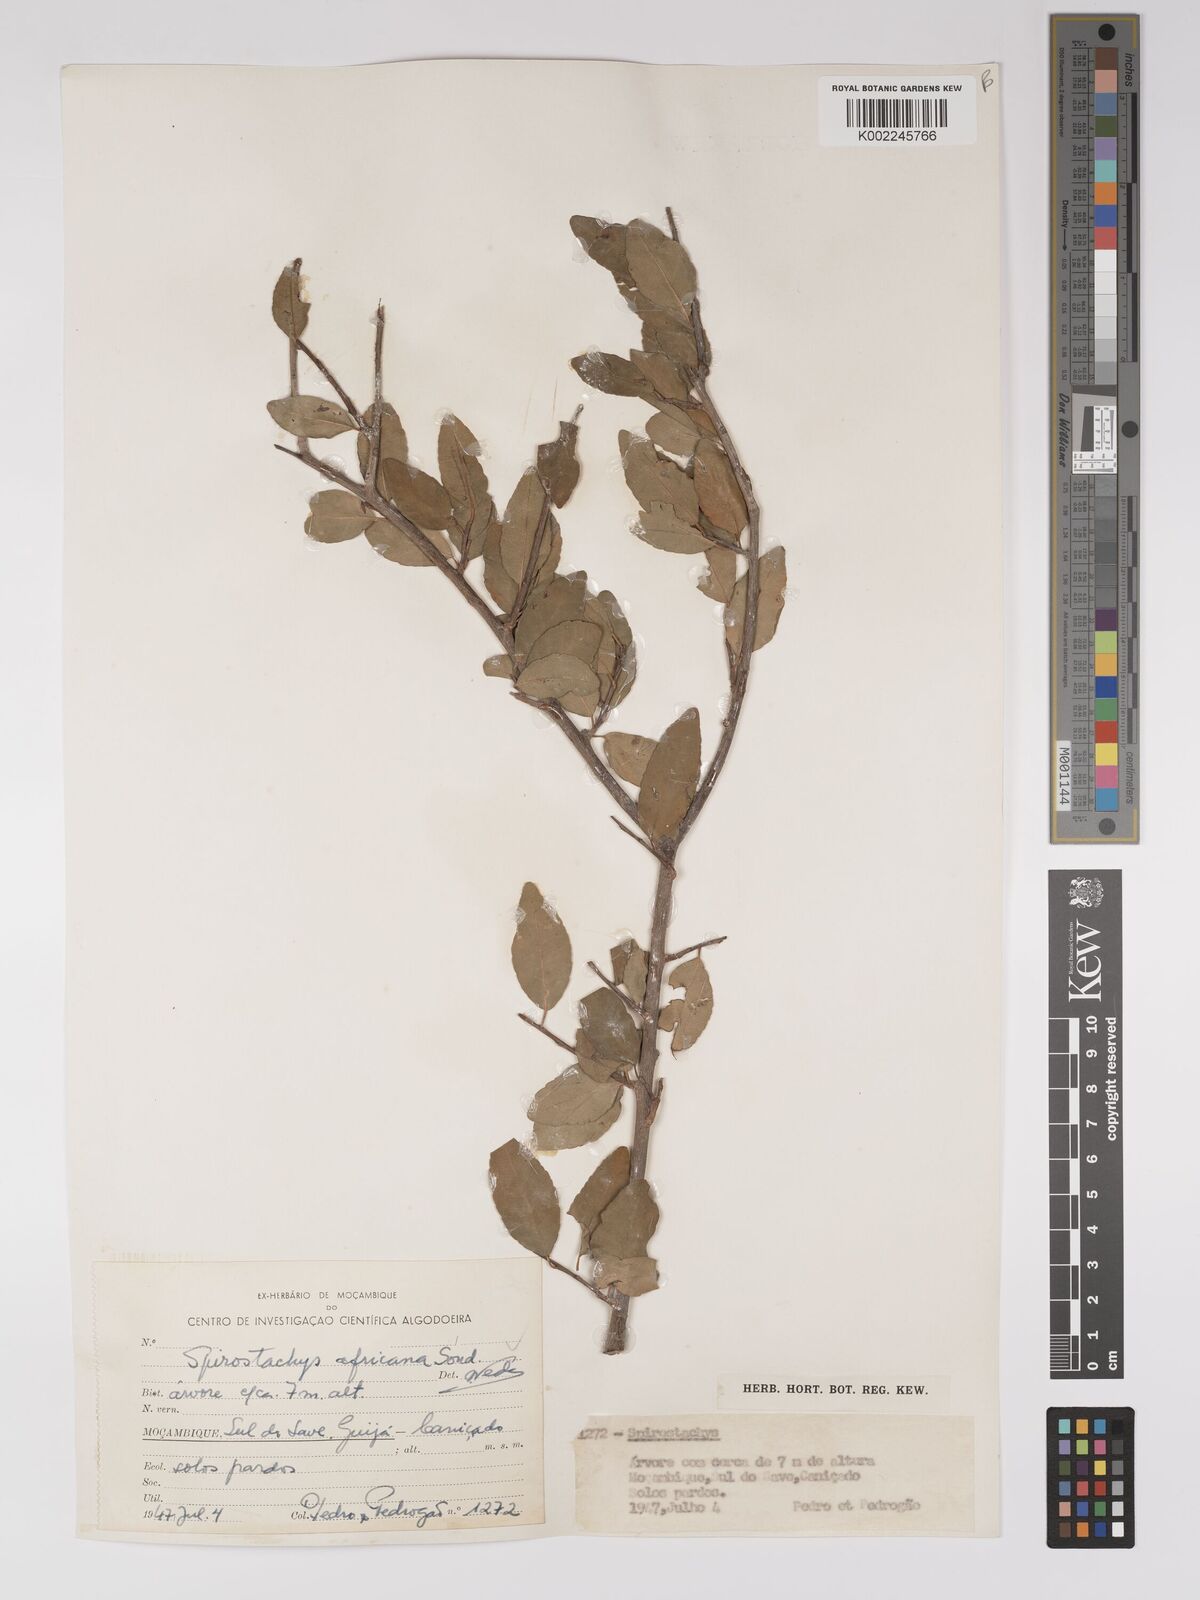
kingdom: Plantae
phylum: Tracheophyta
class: Magnoliopsida
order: Malpighiales
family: Euphorbiaceae
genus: Spirostachys
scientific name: Spirostachys africana
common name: Tamboti
